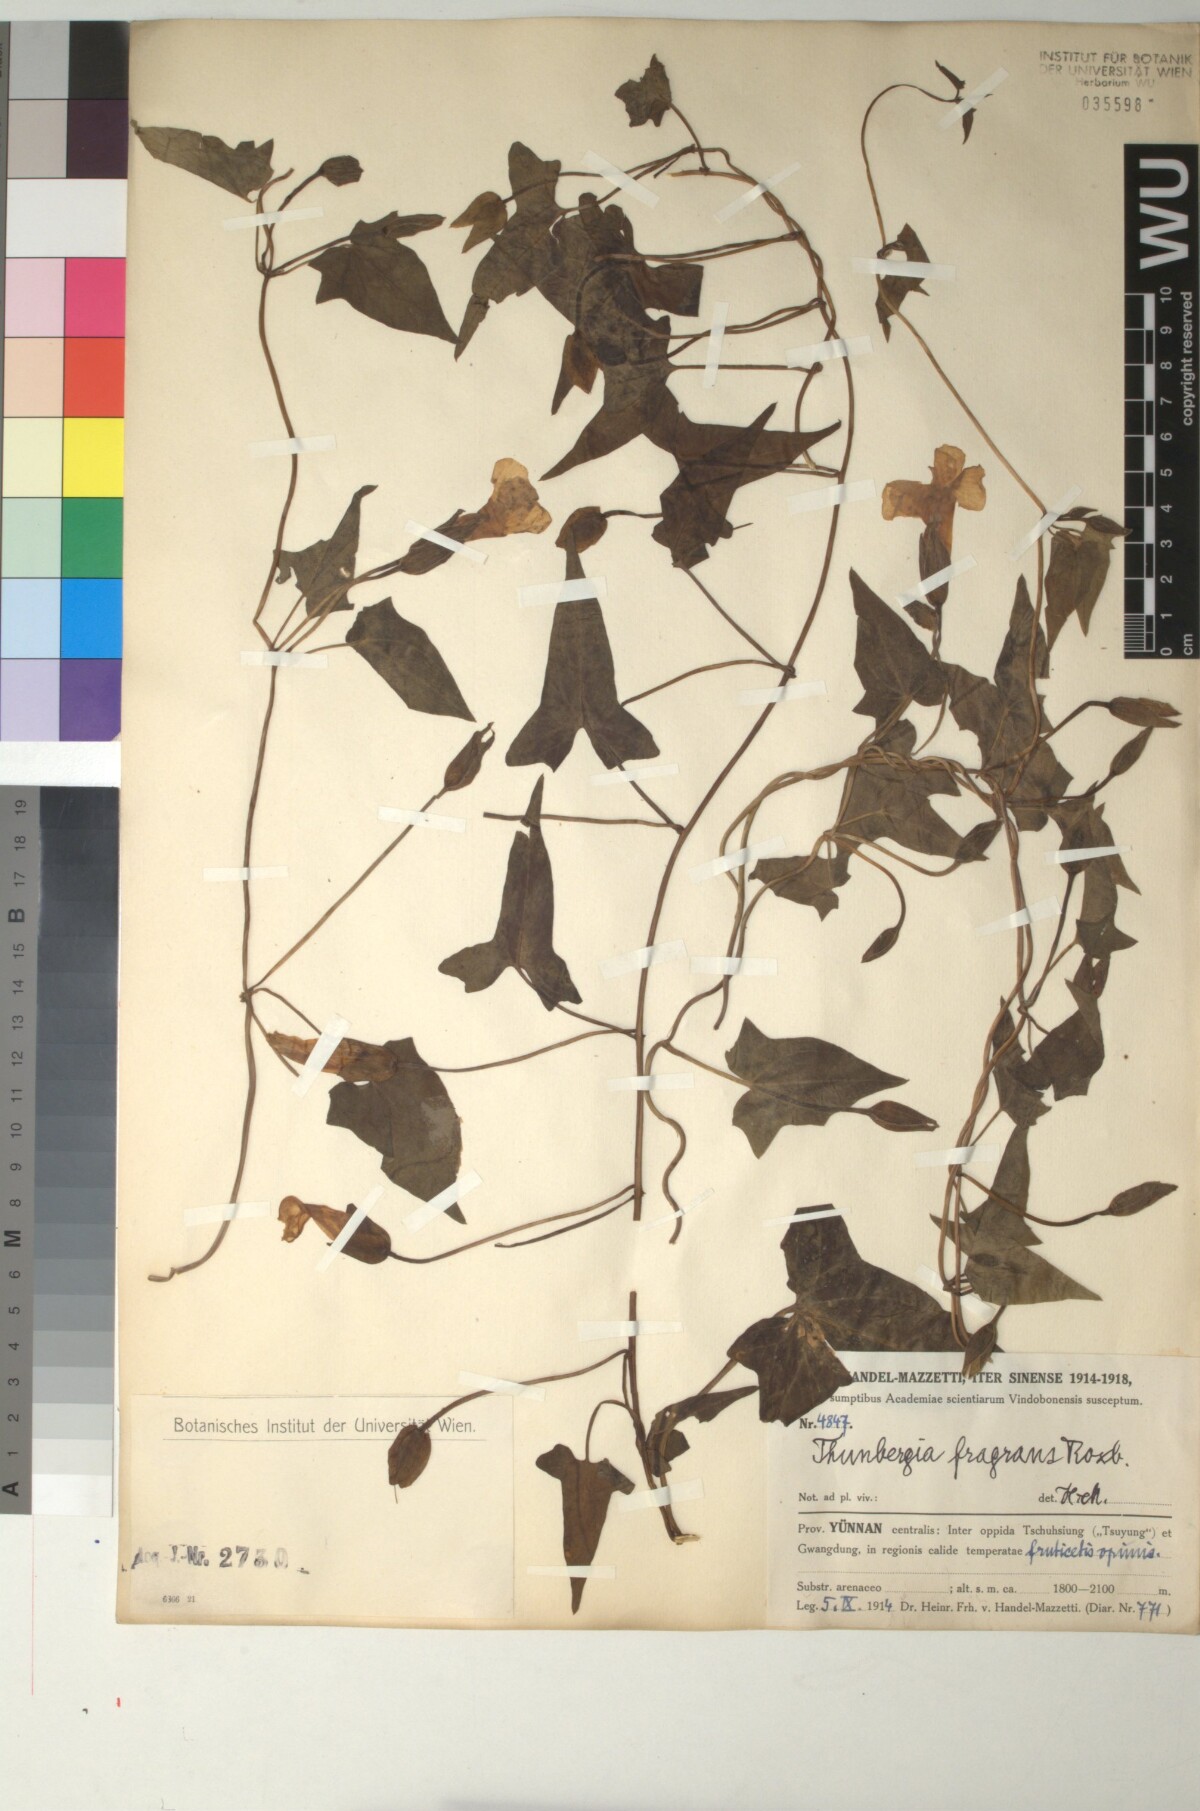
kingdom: Plantae
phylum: Tracheophyta
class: Magnoliopsida
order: Lamiales
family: Acanthaceae
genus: Thunbergia
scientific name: Thunbergia fragrans
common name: Whitelady
